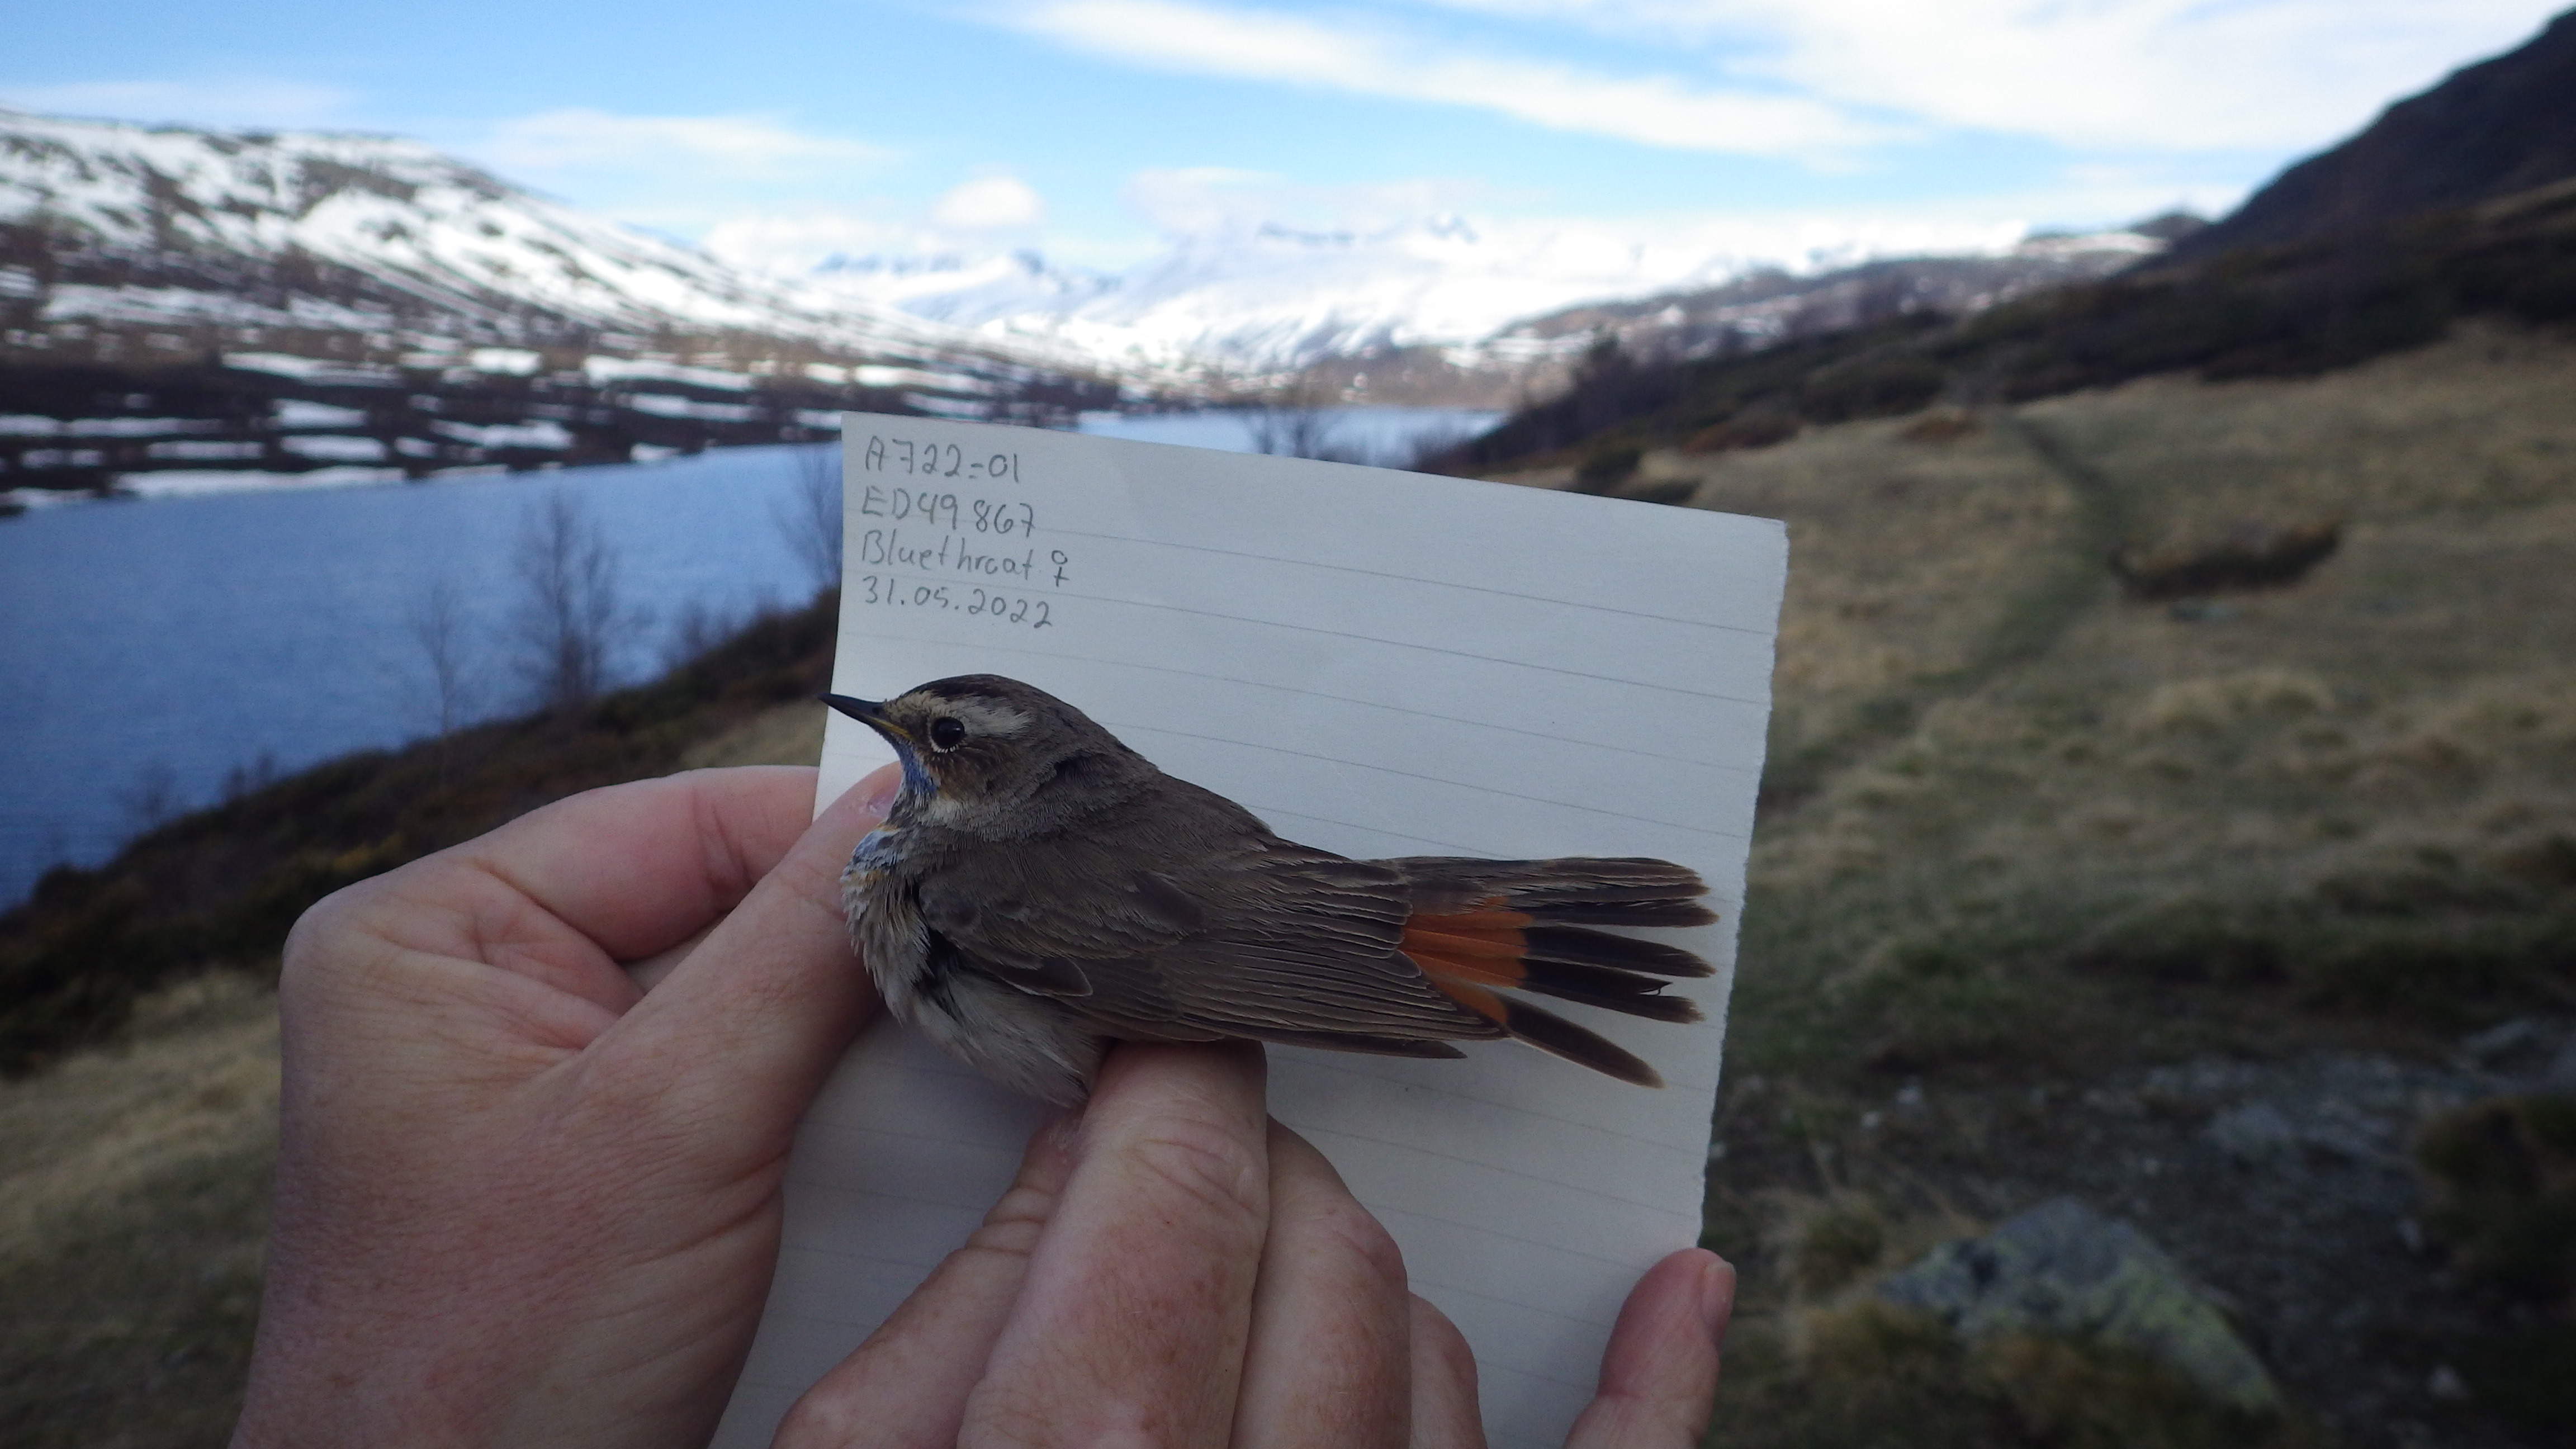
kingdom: Animalia
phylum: Chordata
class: Aves
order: Passeriformes
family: Muscicapidae
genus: Luscinia
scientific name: Luscinia svecica
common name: Bluethroat
